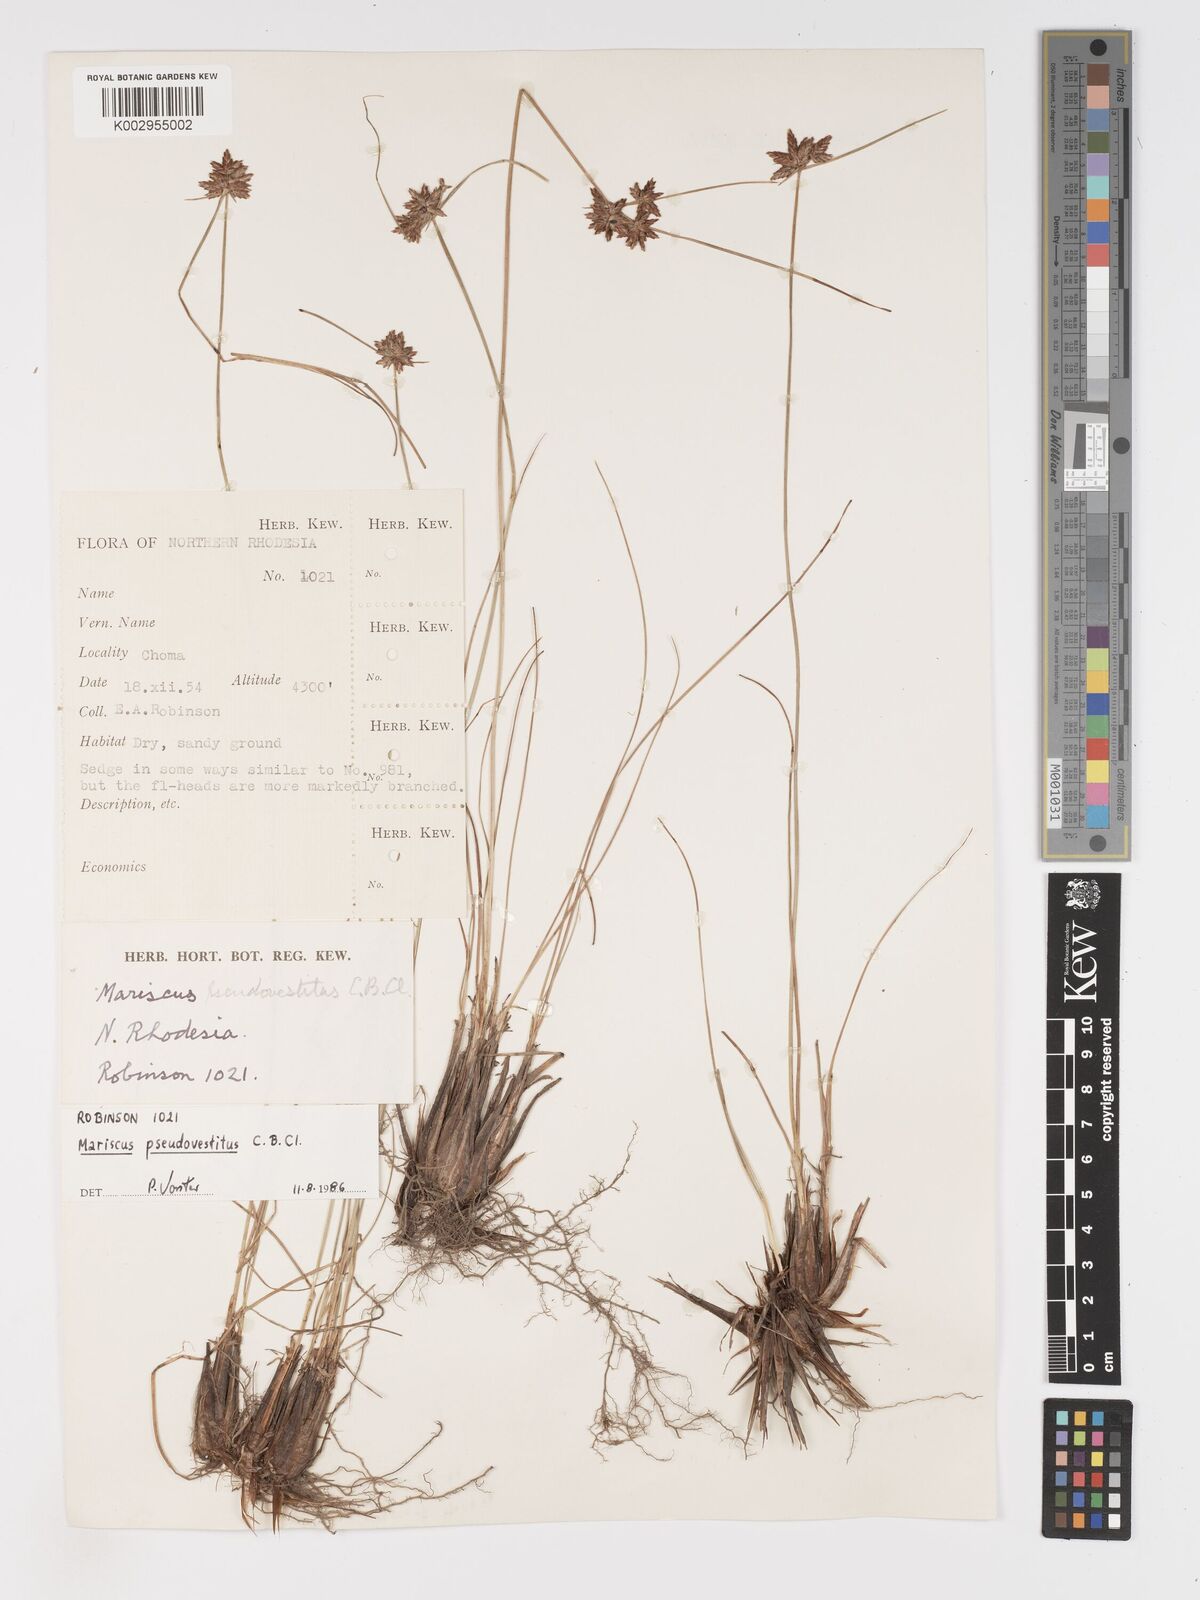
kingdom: Plantae
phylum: Tracheophyta
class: Liliopsida
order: Poales
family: Cyperaceae
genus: Cyperus
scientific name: Cyperus pseudovestitus
